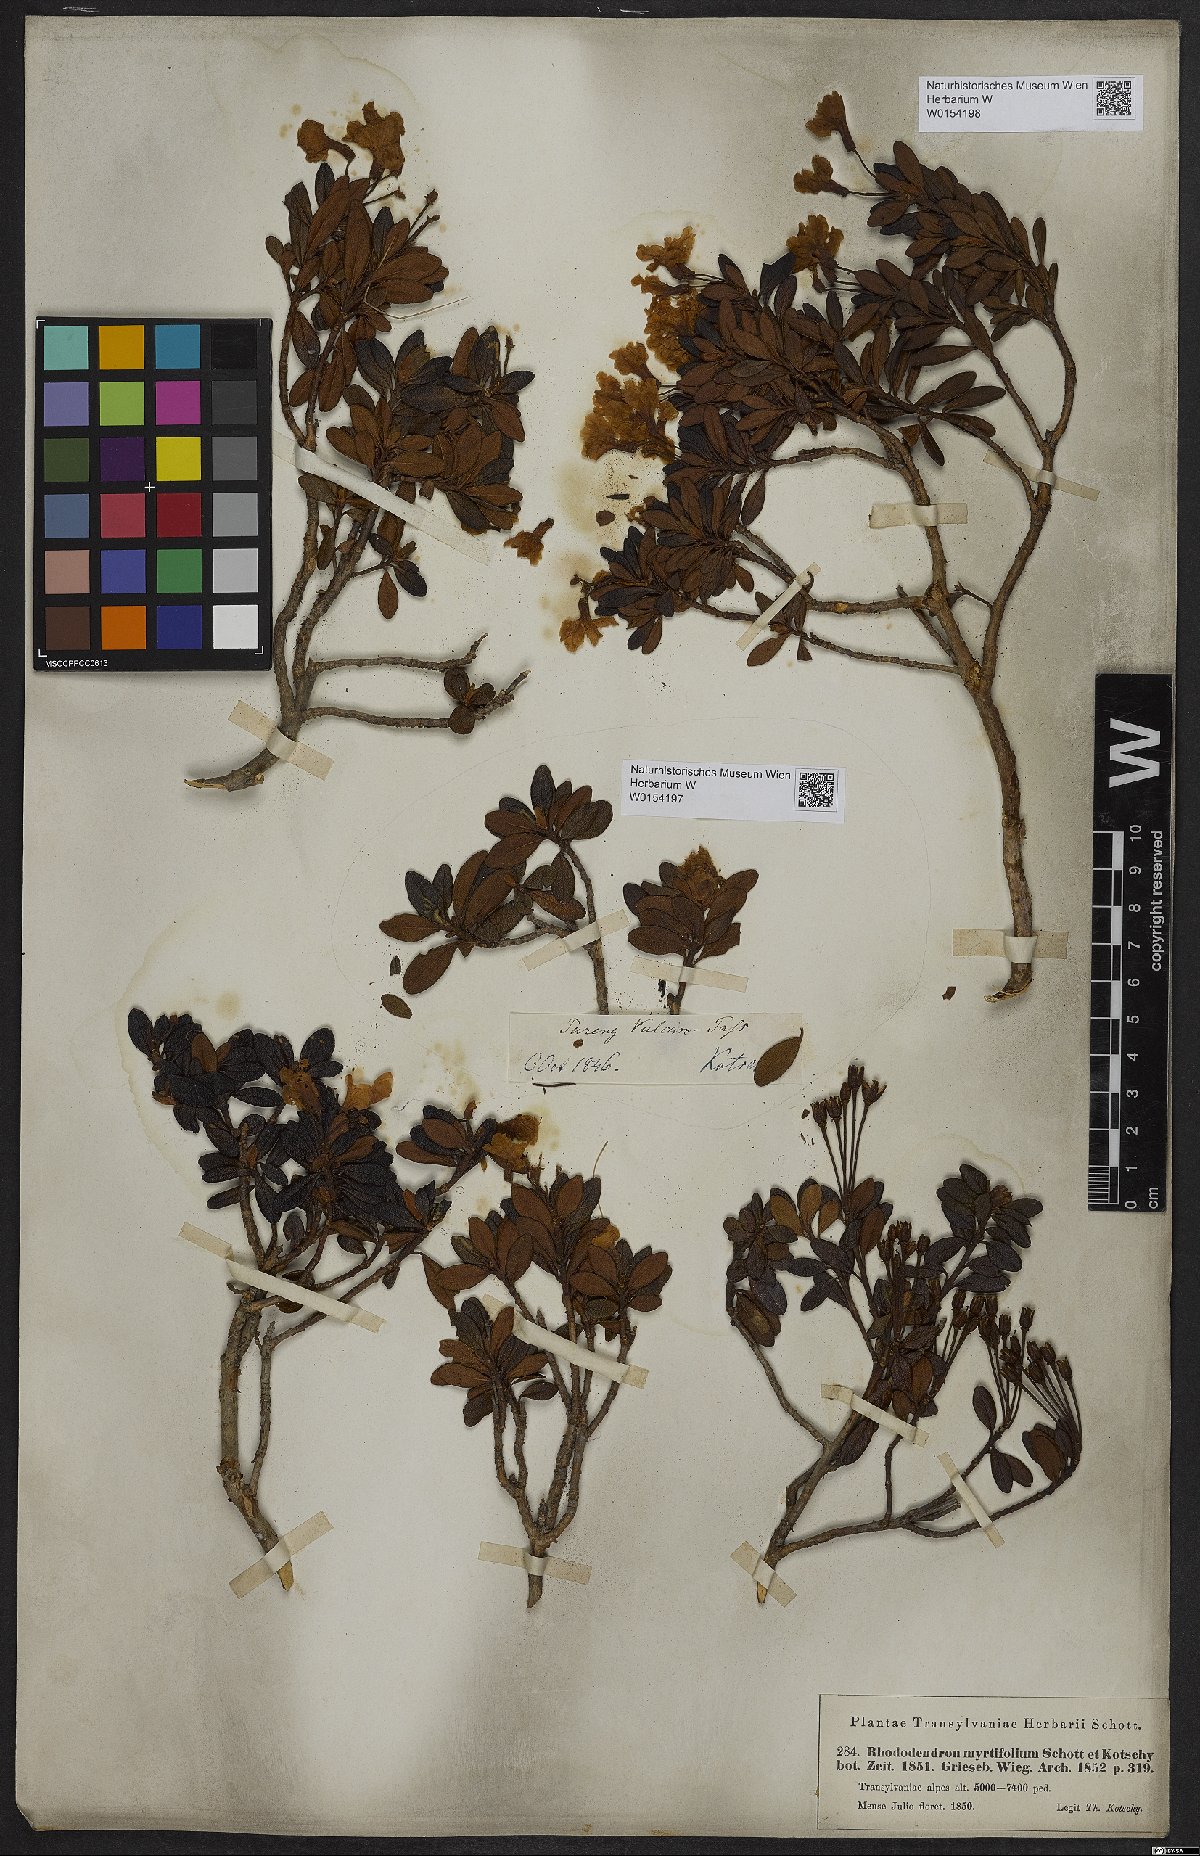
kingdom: Plantae
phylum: Tracheophyta
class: Magnoliopsida
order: Ericales
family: Ericaceae
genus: Rhododendron
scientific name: Rhododendron kotschyi
